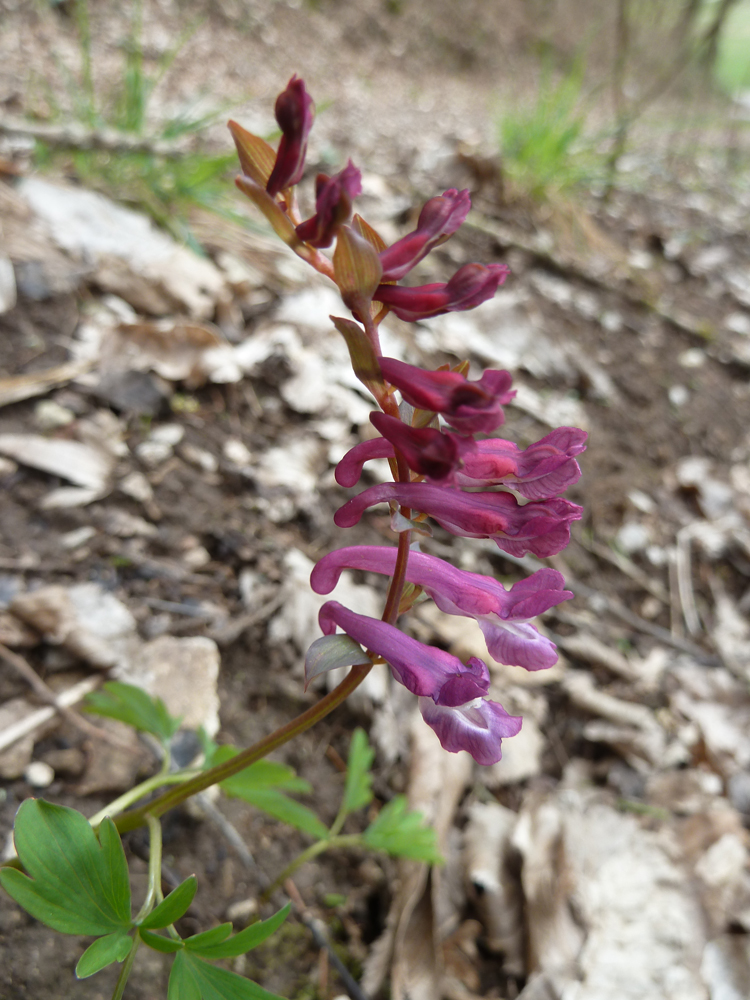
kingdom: Plantae
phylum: Tracheophyta
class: Magnoliopsida
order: Ranunculales
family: Papaveraceae
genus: Corydalis
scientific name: Corydalis cava
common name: Hollowroot
